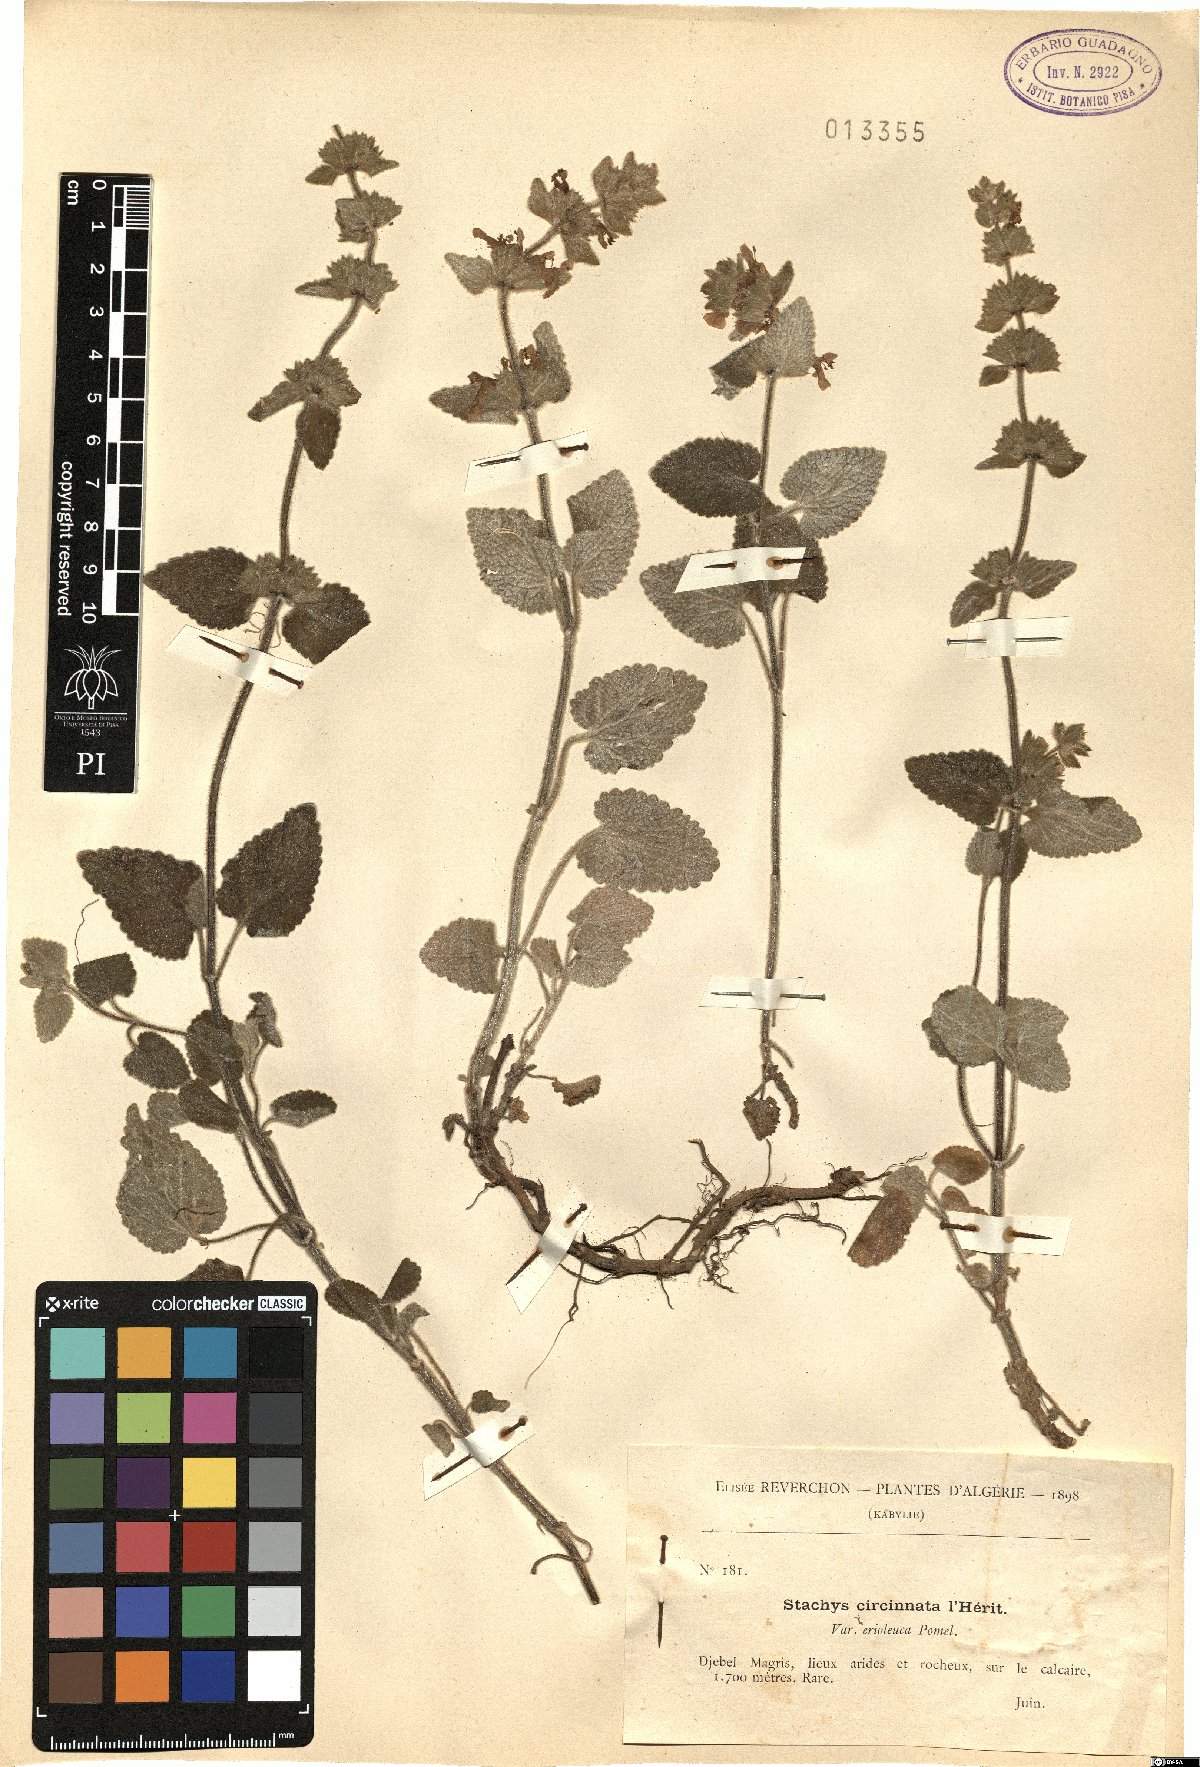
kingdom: Plantae
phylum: Tracheophyta
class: Magnoliopsida
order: Lamiales
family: Lamiaceae
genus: Stachys
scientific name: Stachys circinata
